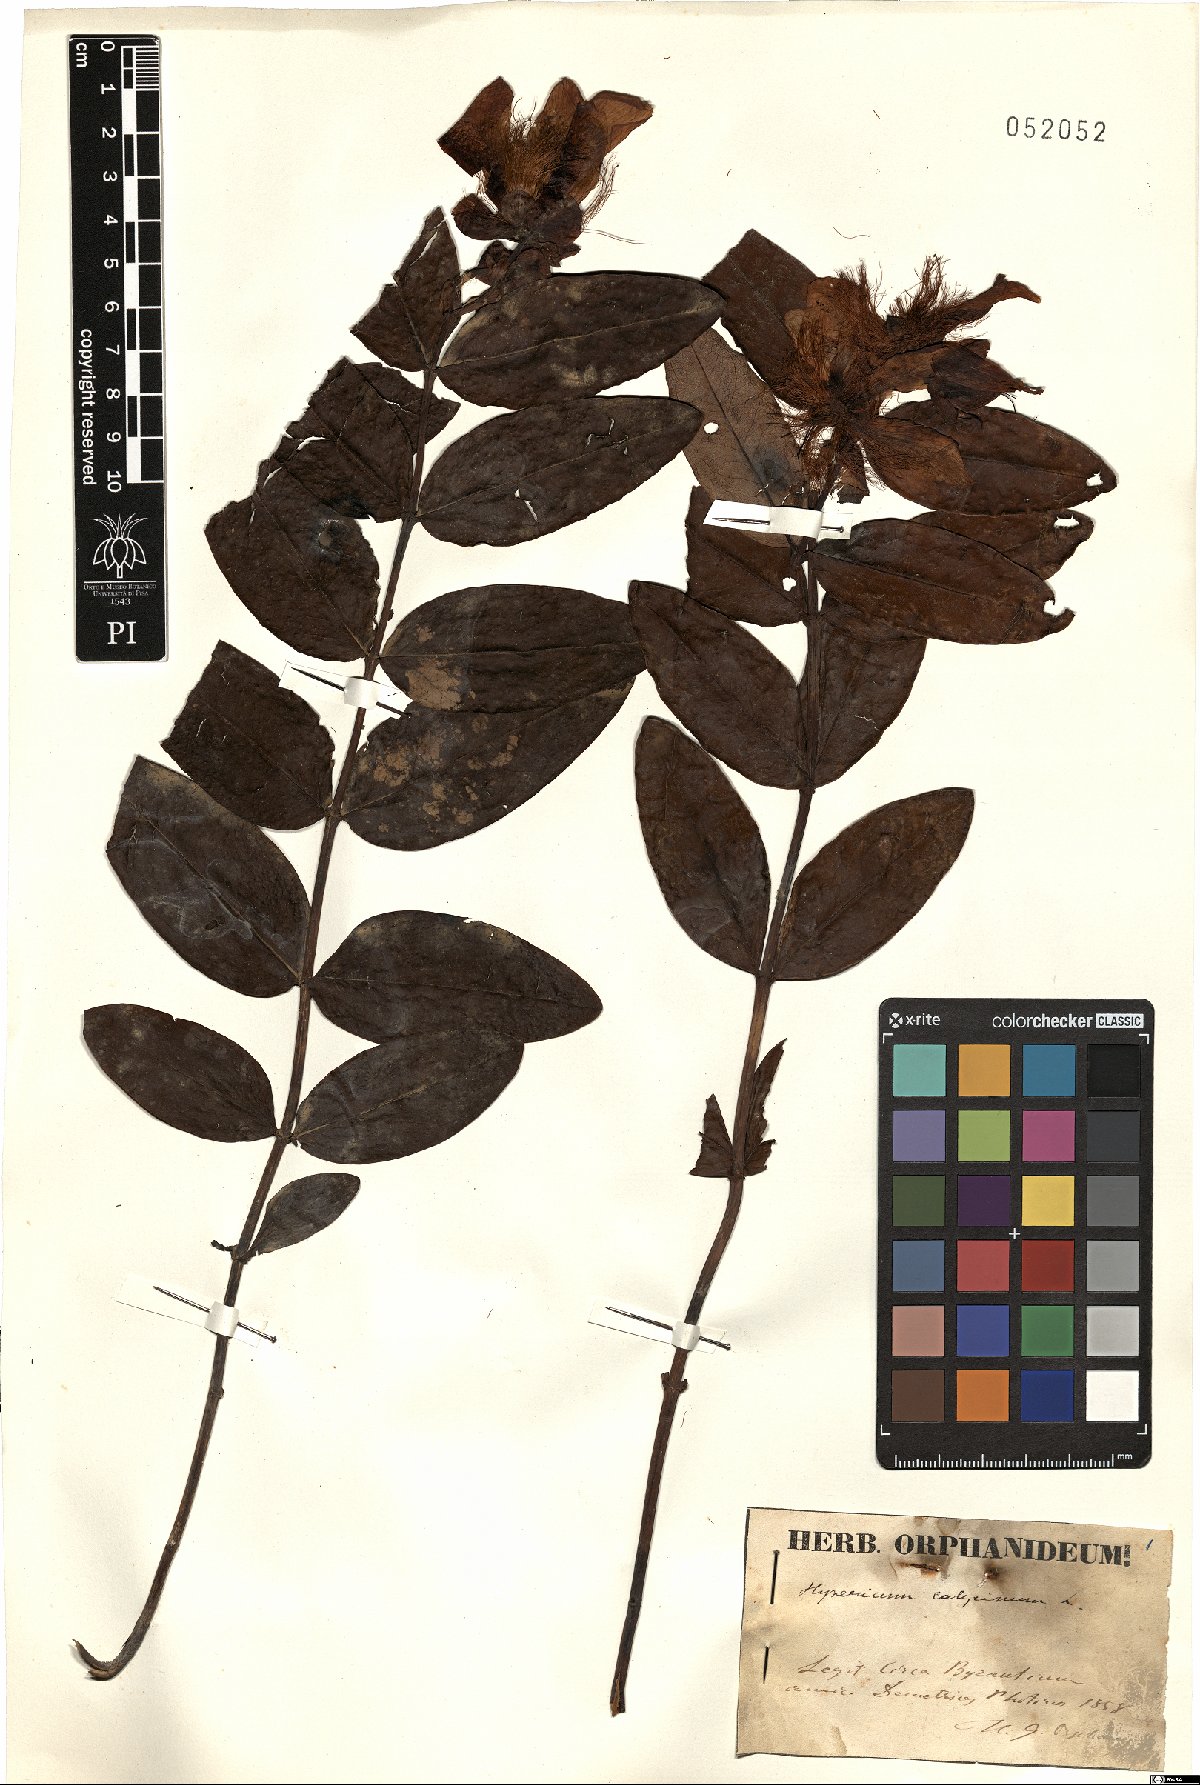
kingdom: Plantae
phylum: Tracheophyta
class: Magnoliopsida
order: Malpighiales
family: Hypericaceae
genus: Hypericum
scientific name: Hypericum calycinum
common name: Rose-of-sharon
